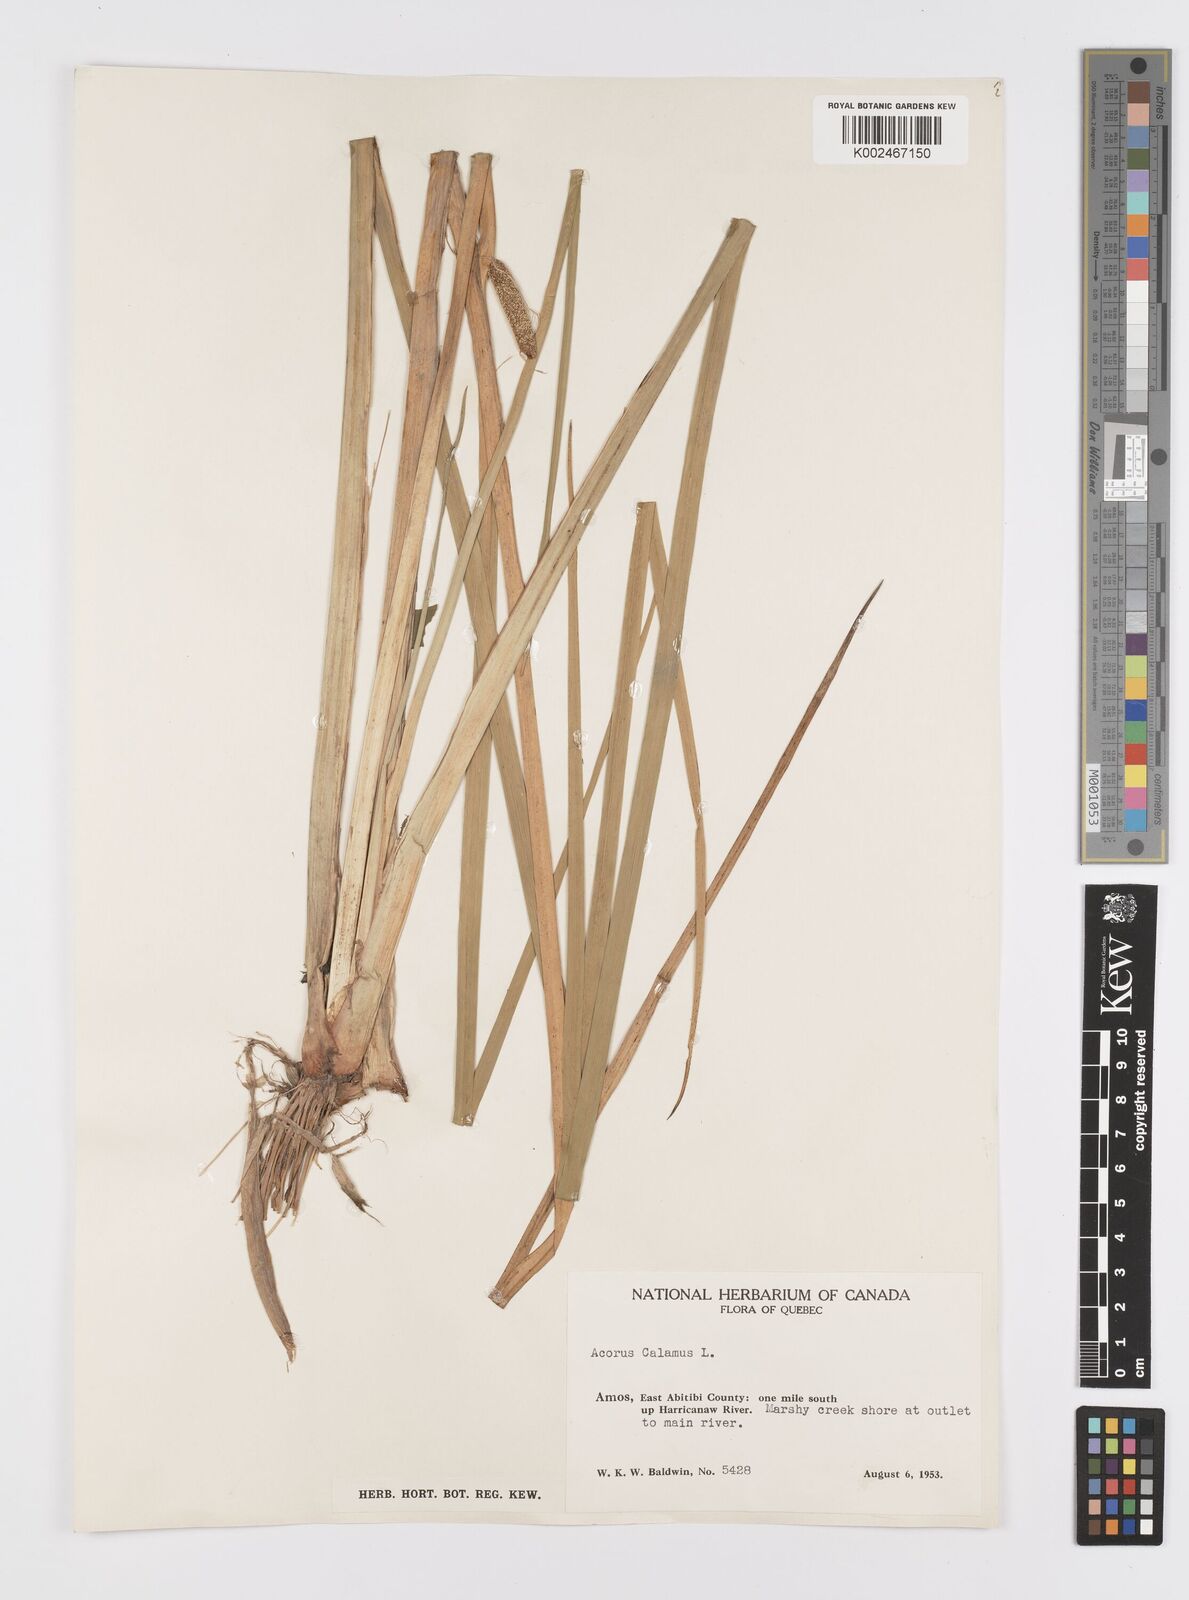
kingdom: Plantae
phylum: Tracheophyta
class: Liliopsida
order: Acorales
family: Acoraceae
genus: Acorus
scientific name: Acorus calamus
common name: Sweet-flag
